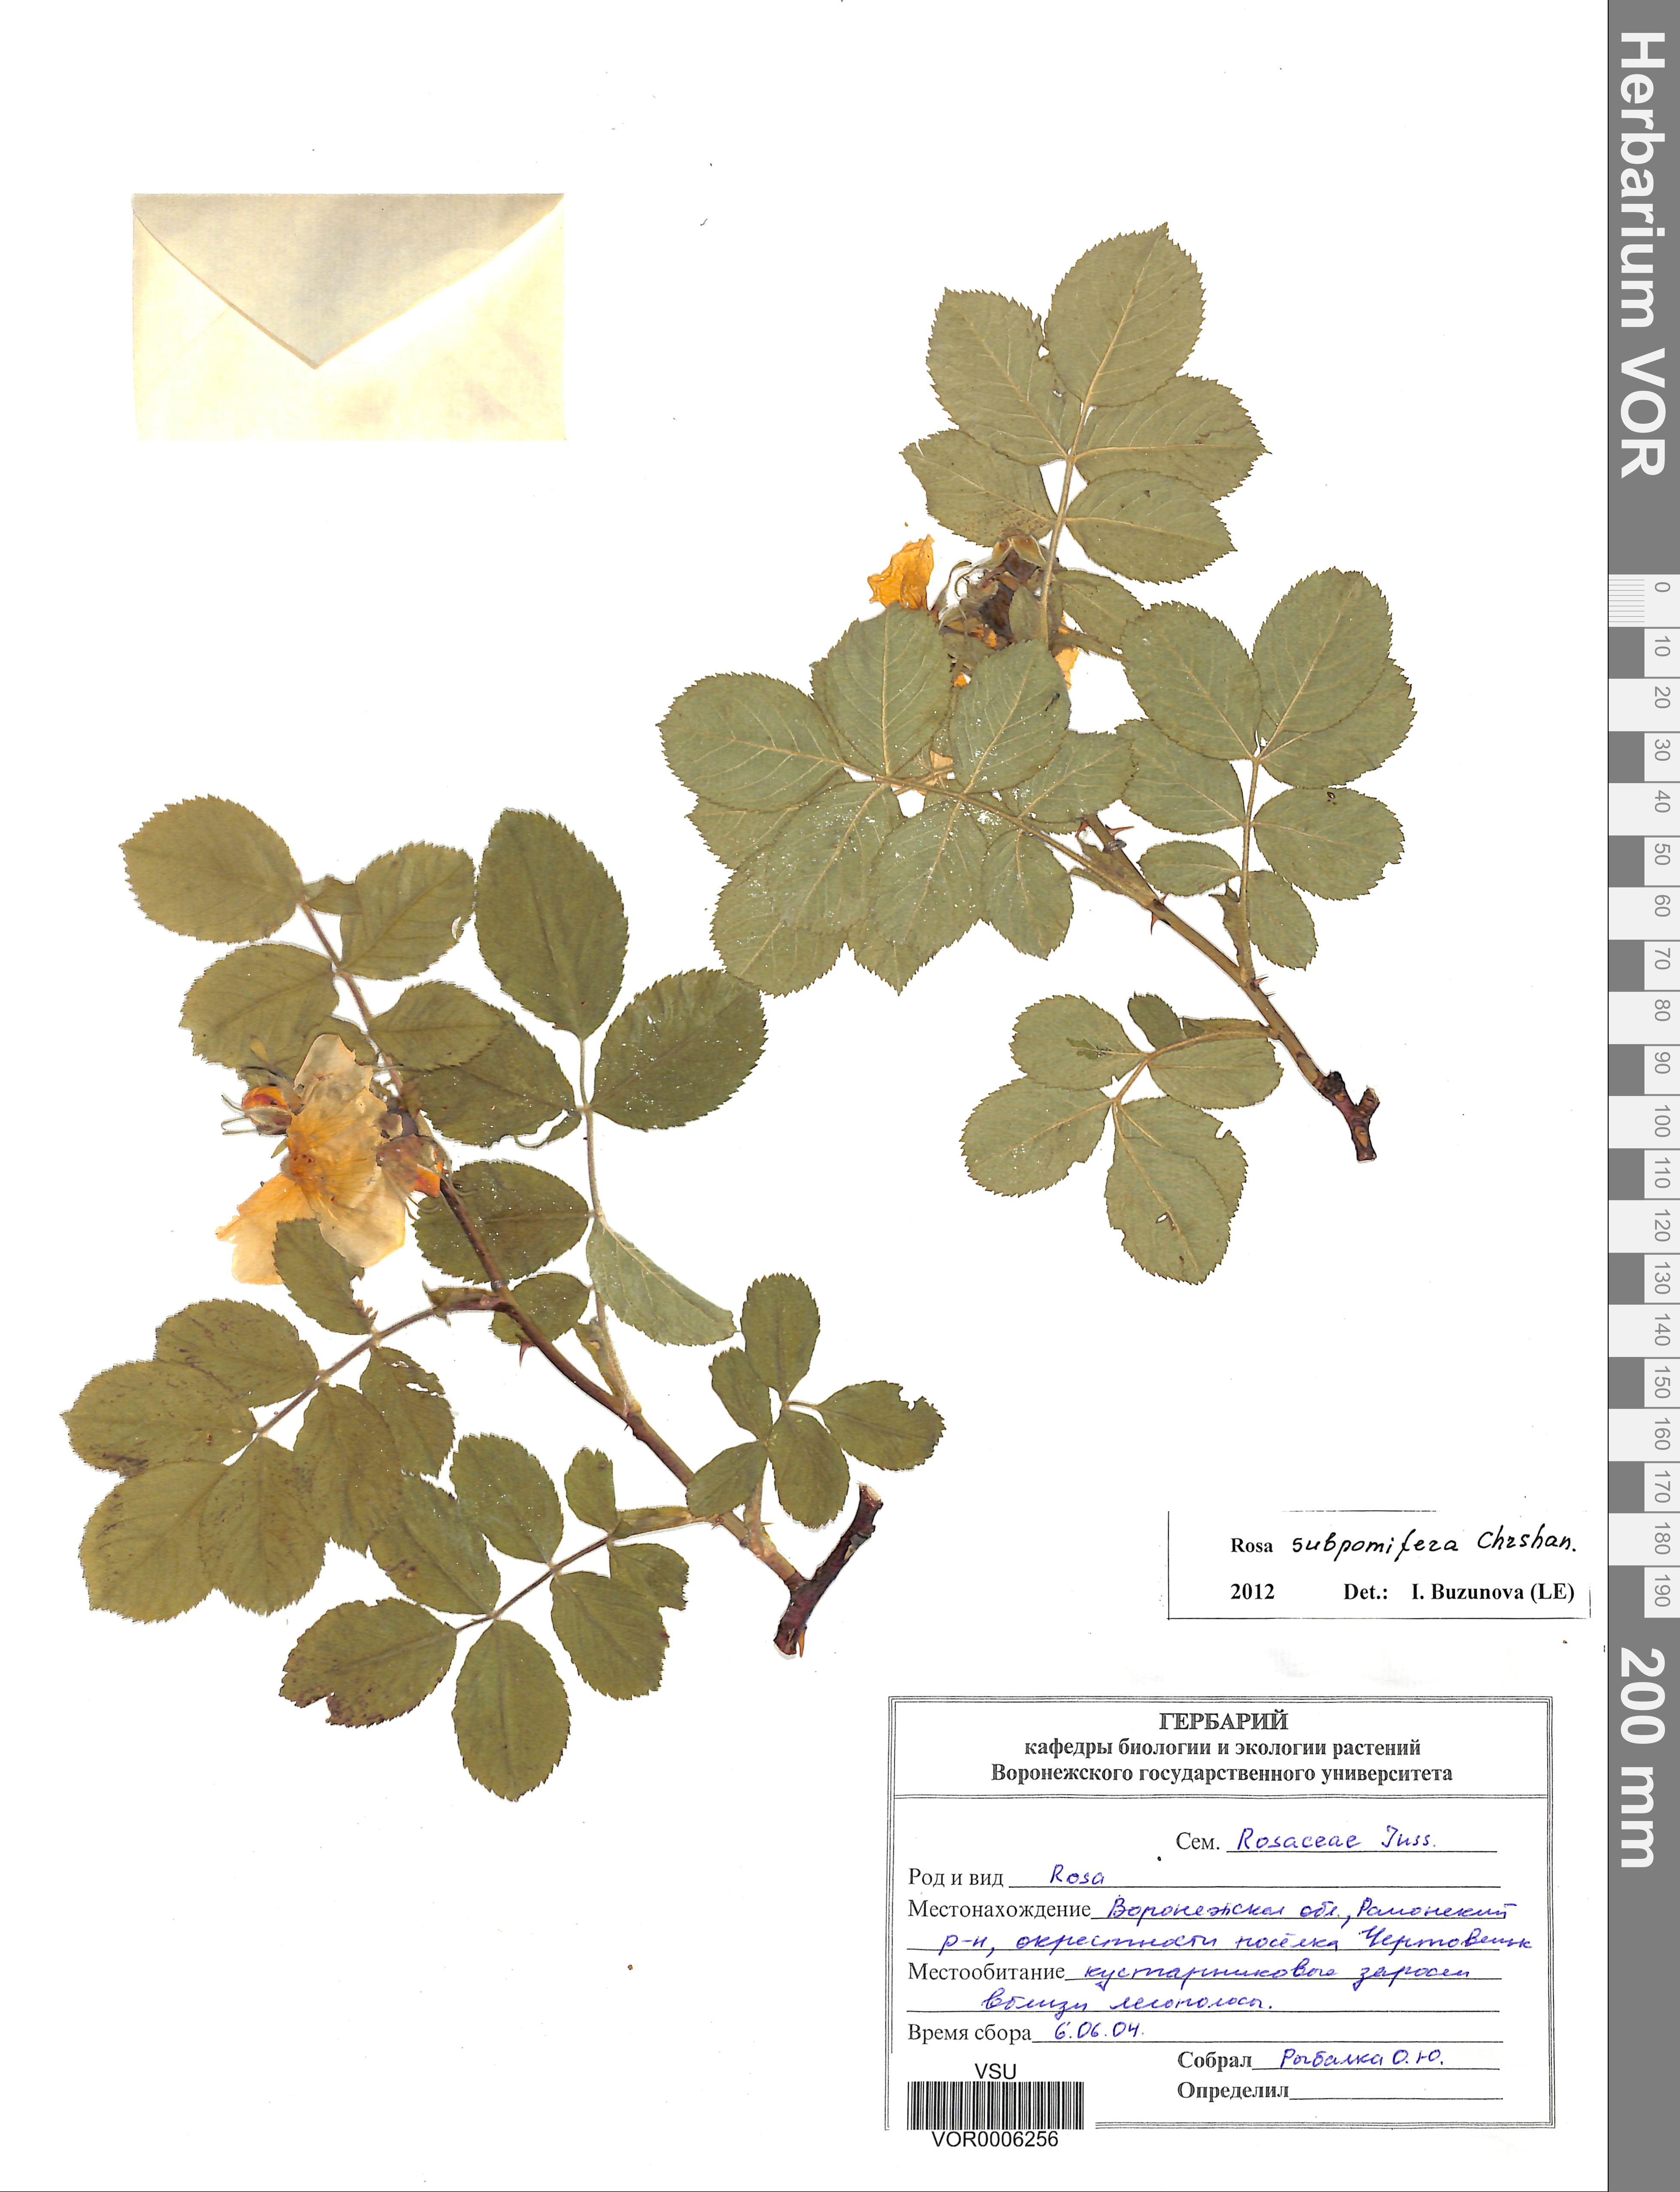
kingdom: Plantae
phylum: Tracheophyta
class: Magnoliopsida
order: Rosales
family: Rosaceae
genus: Rosa
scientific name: Rosa subpomifera
